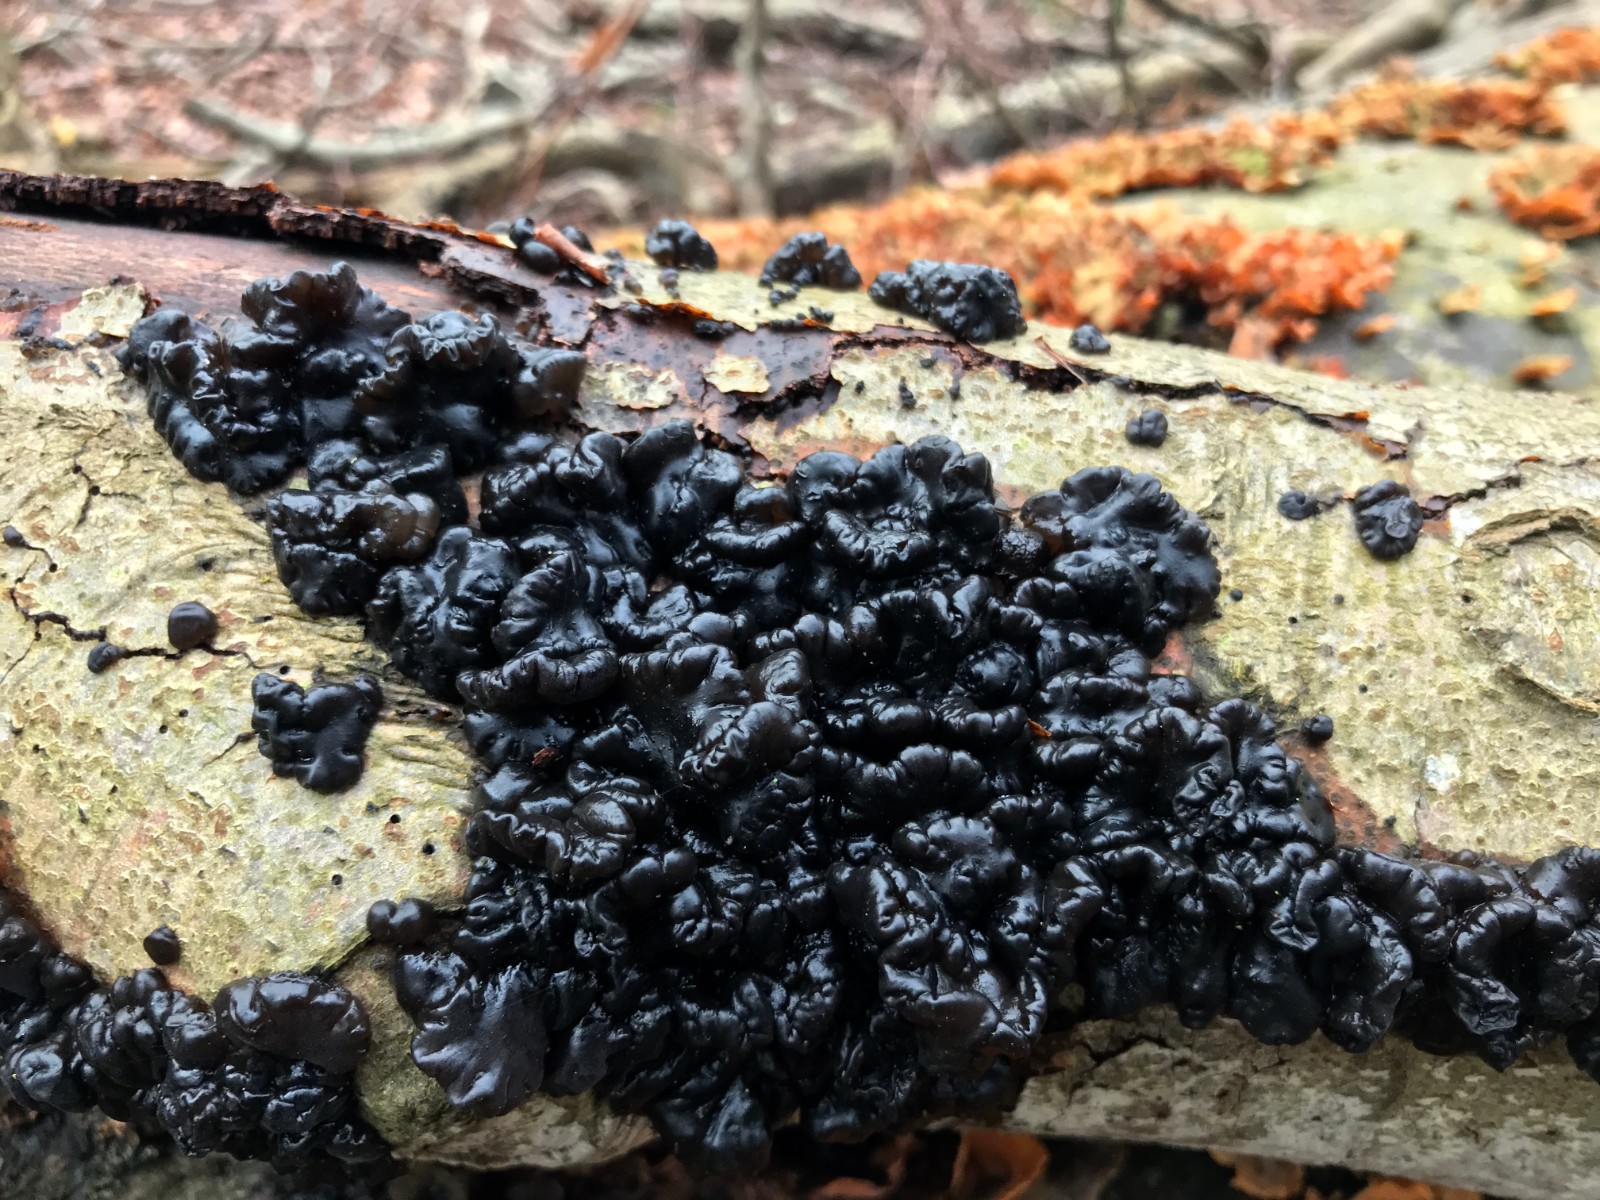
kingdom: Fungi
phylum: Basidiomycota
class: Agaricomycetes
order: Auriculariales
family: Auriculariaceae
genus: Exidia
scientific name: Exidia nigricans
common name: almindelig bævretop
